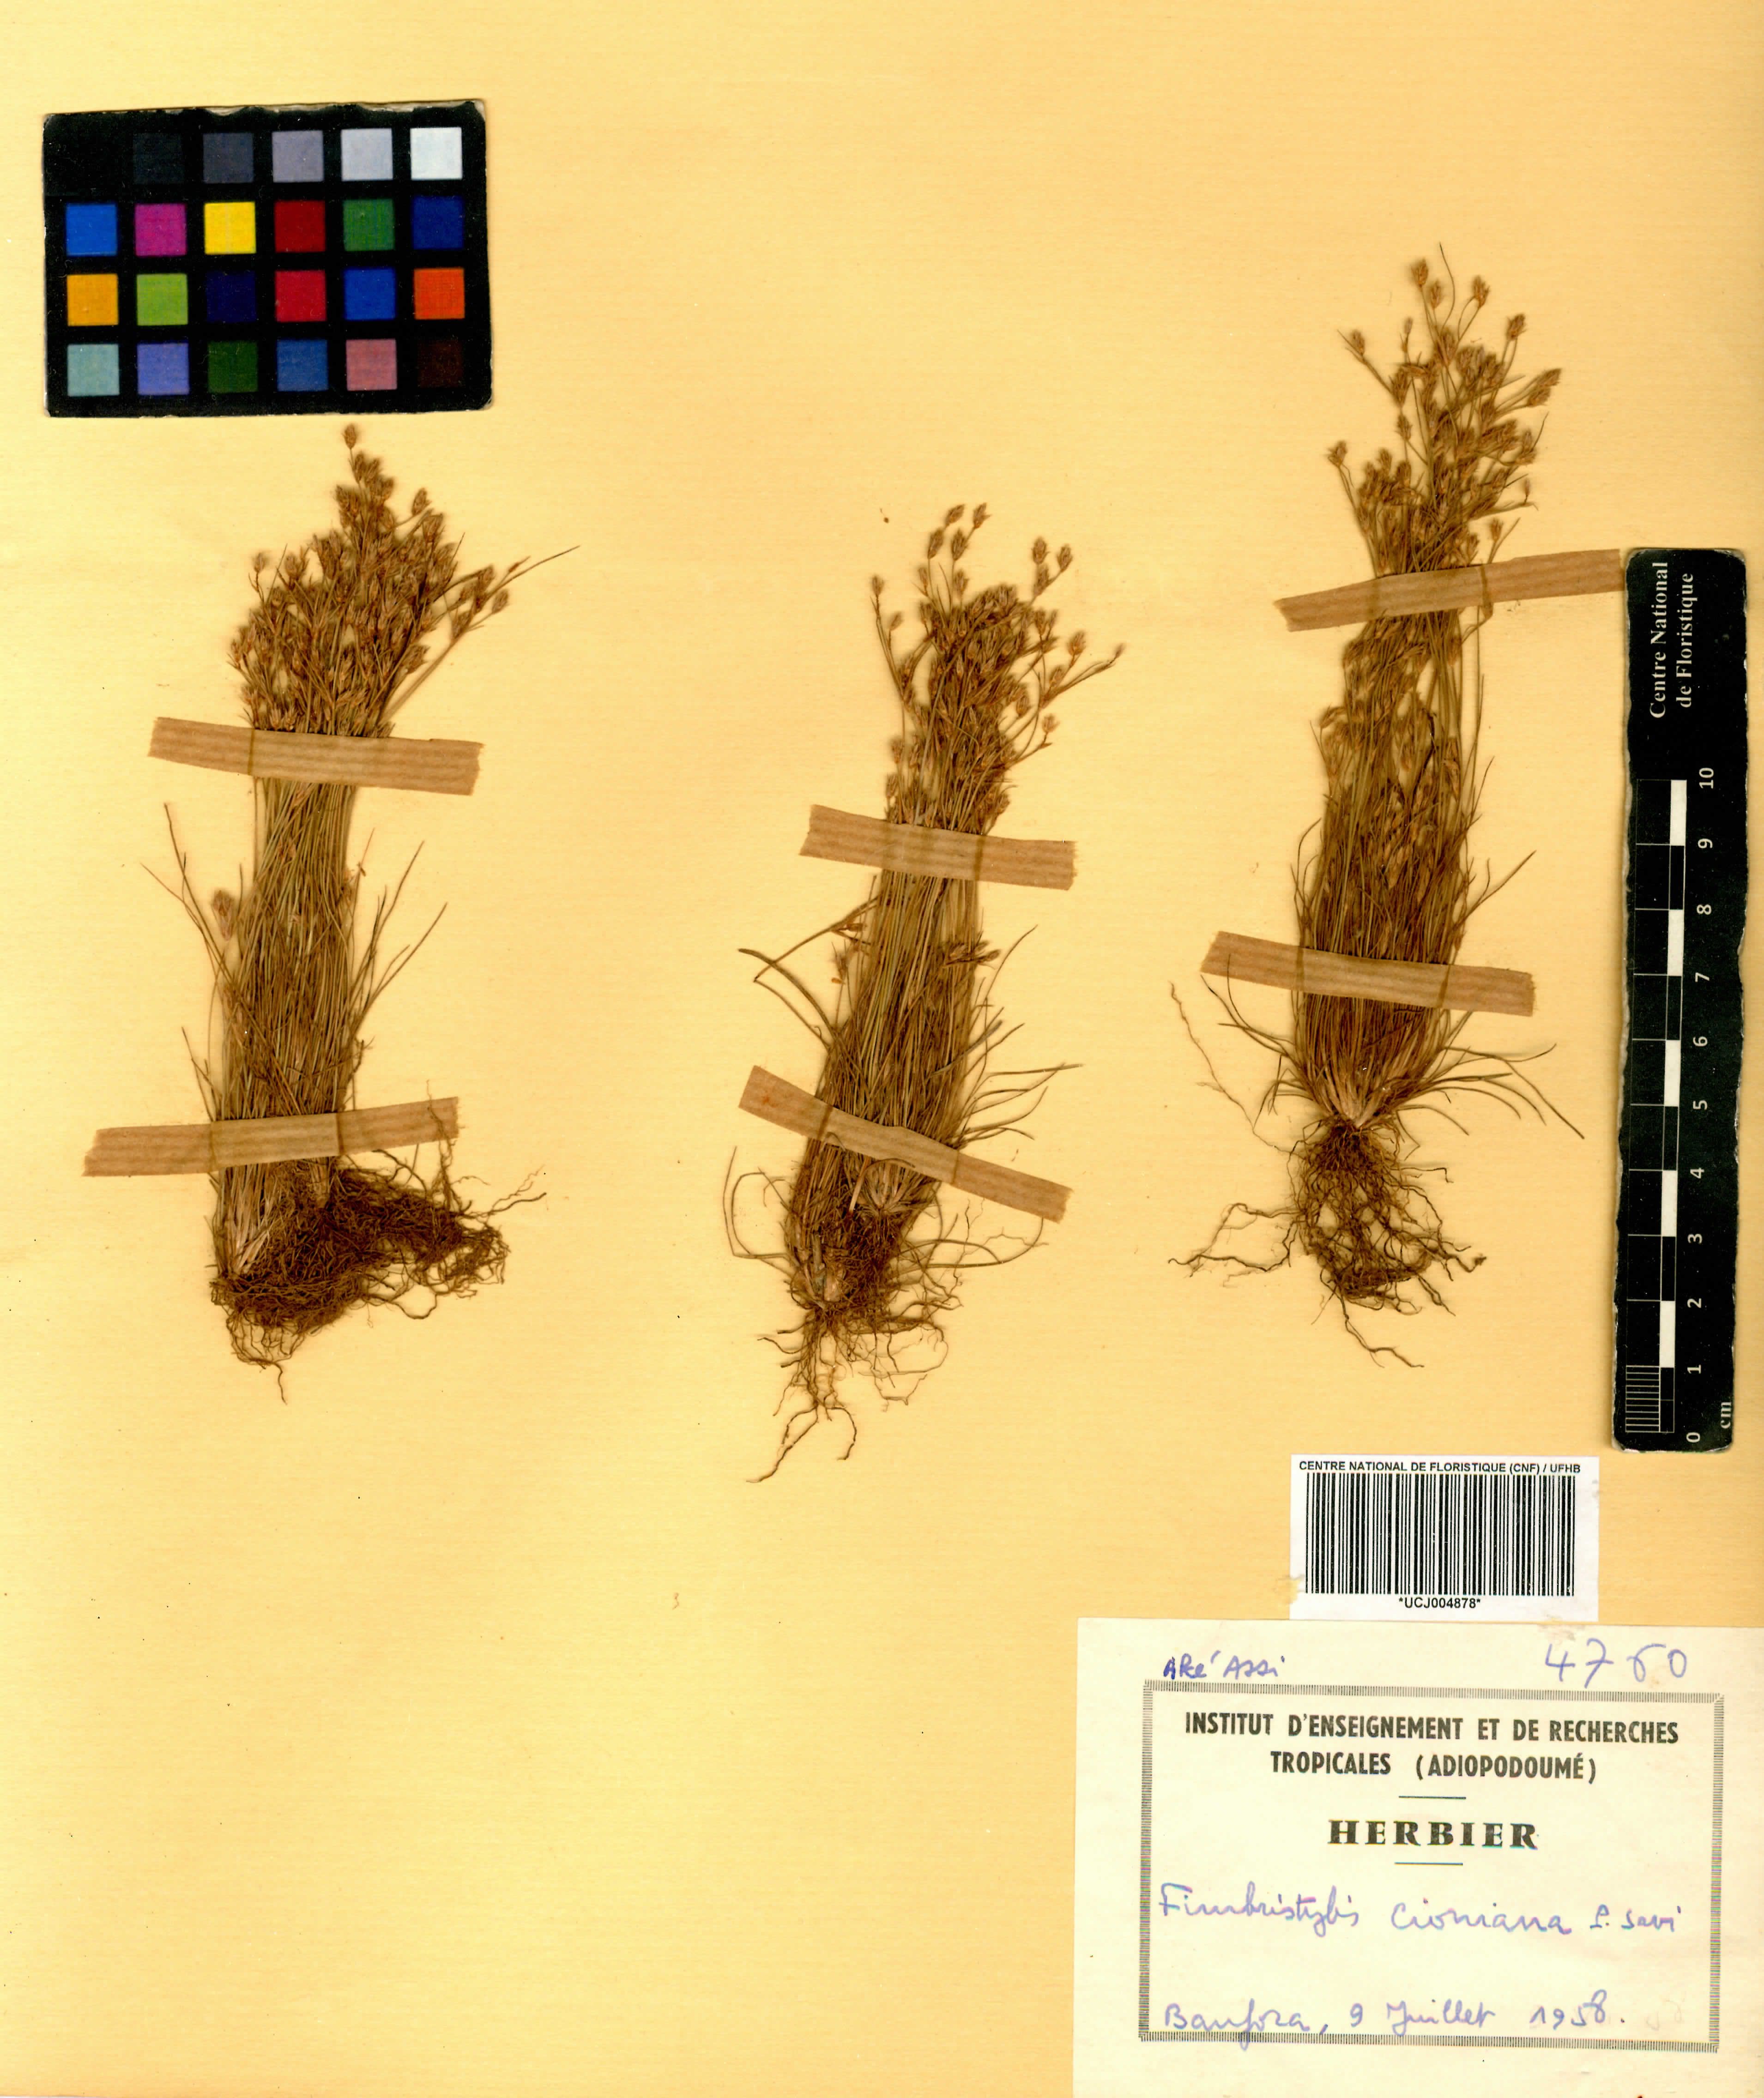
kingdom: Plantae
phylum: Tracheophyta
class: Liliopsida
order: Poales
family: Cyperaceae
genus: Bulbostylis
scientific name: Bulbostylis cioniana
